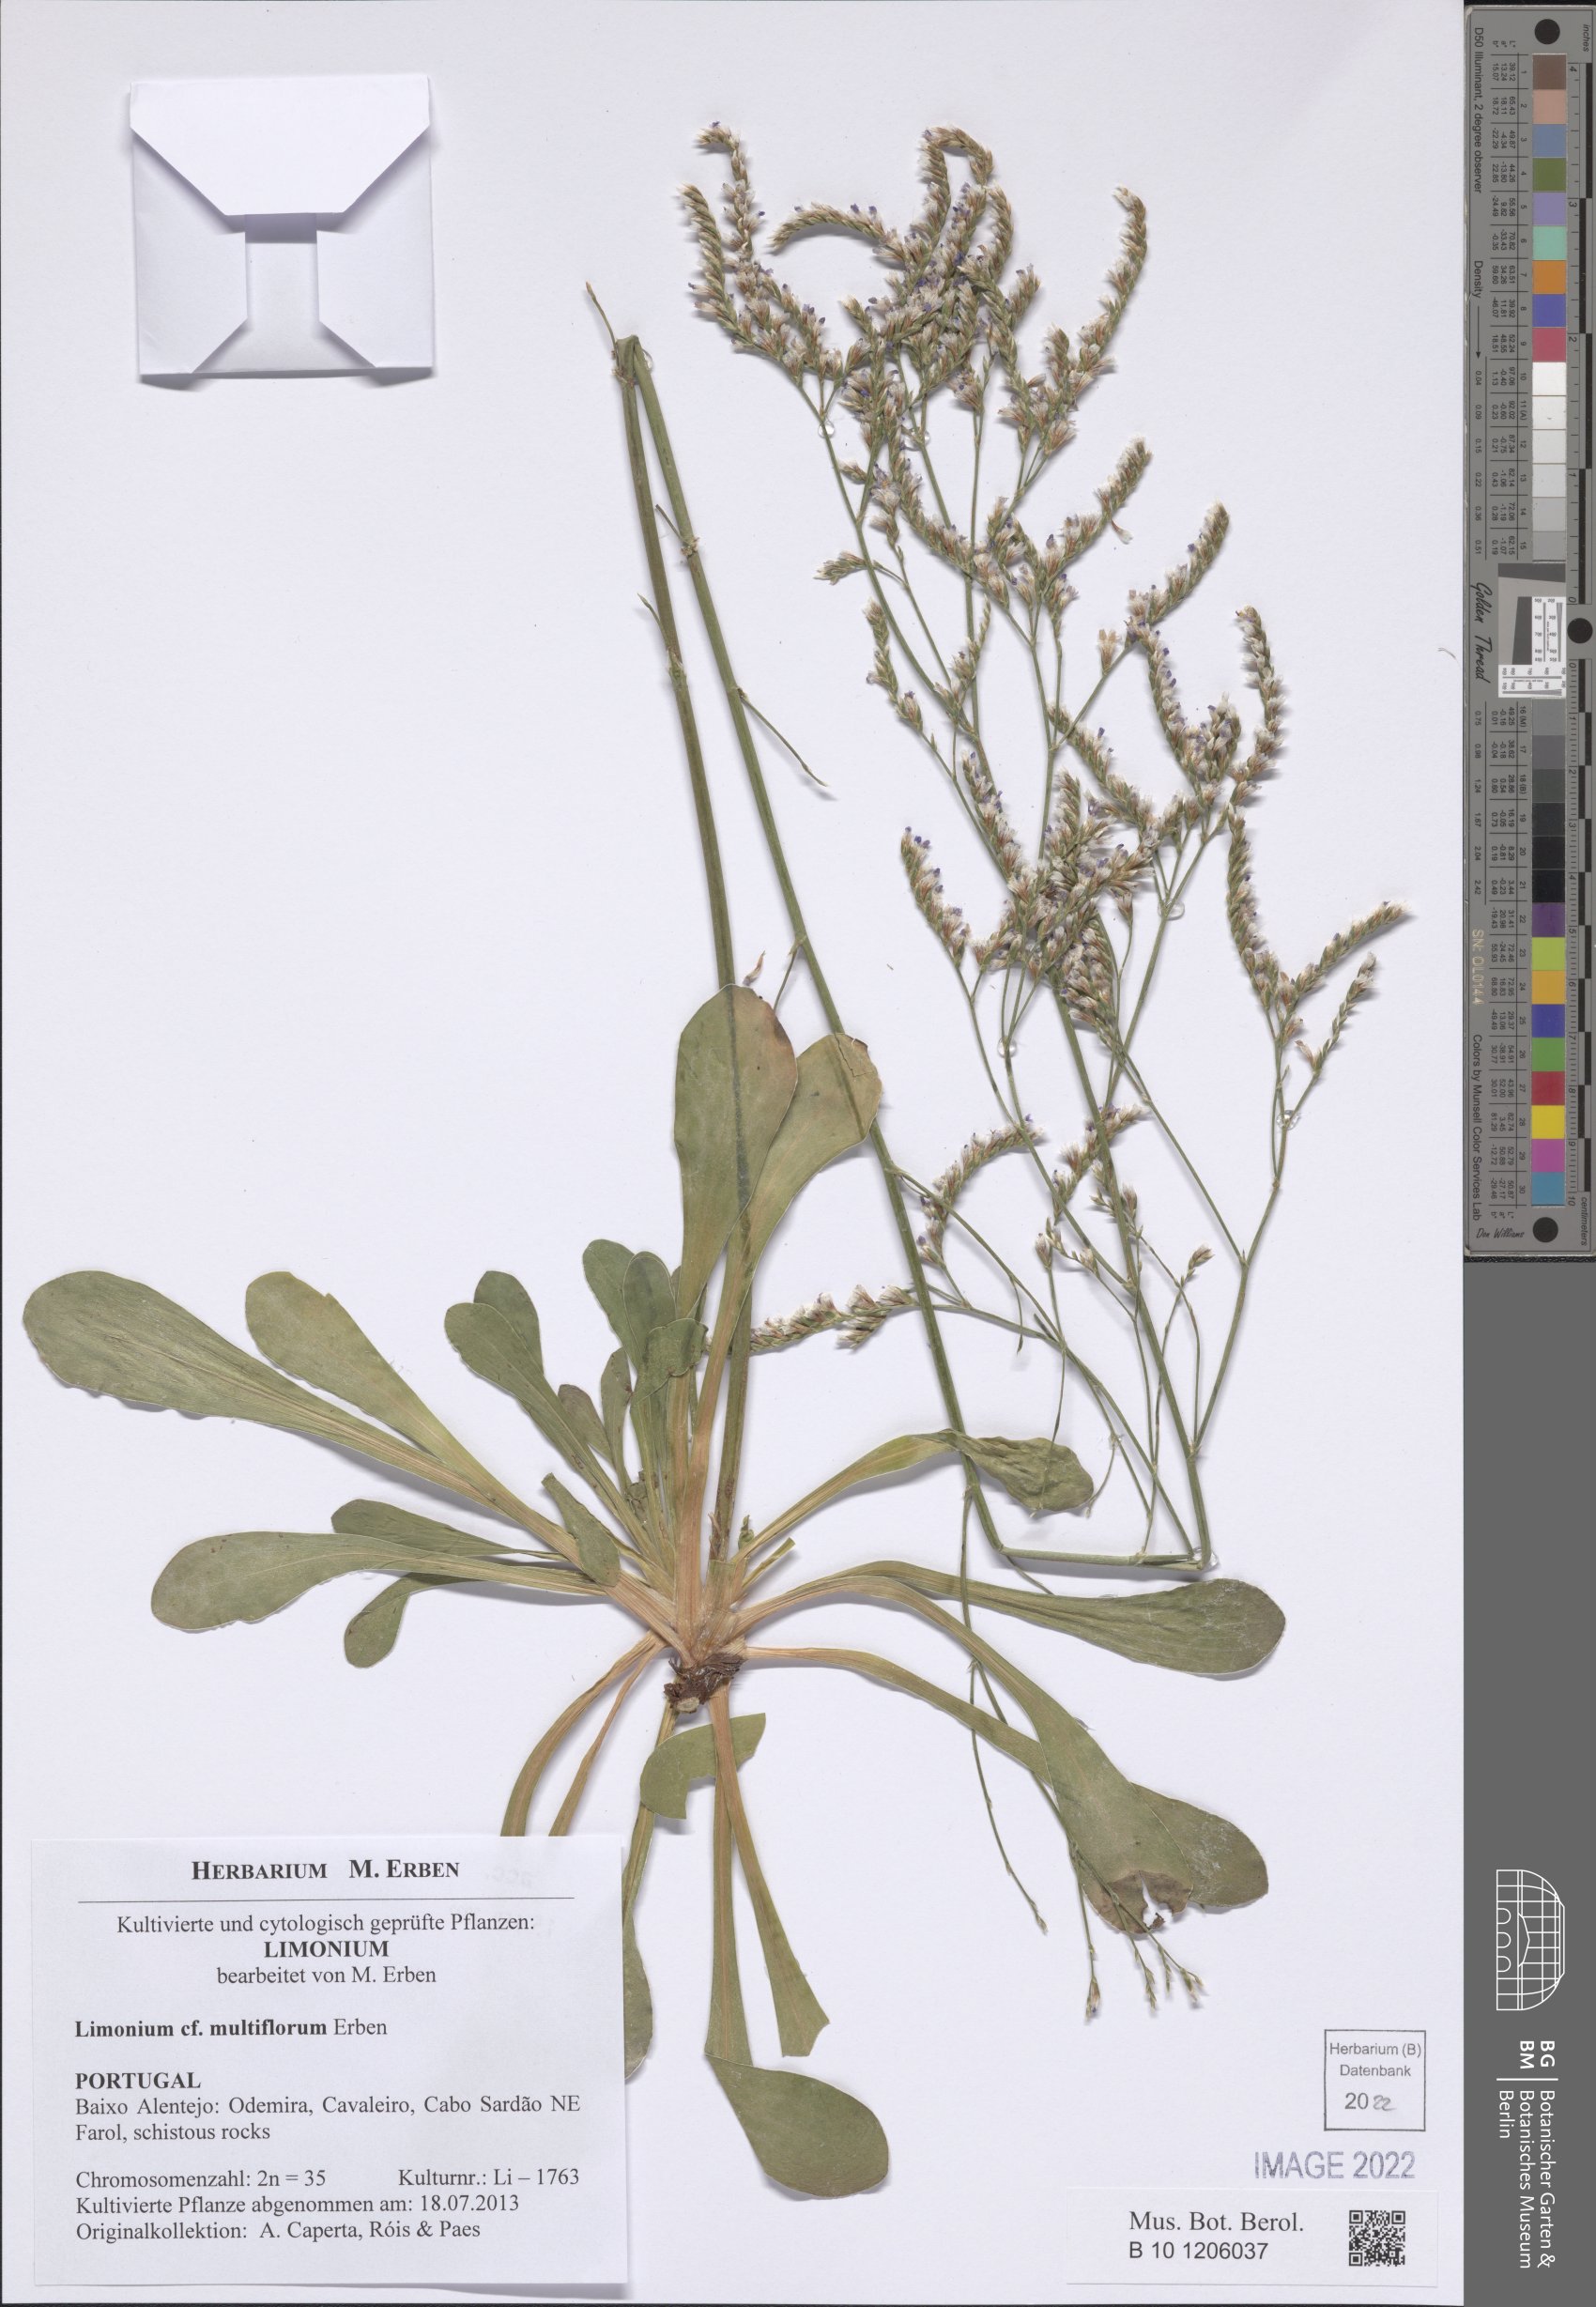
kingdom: Plantae
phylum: Tracheophyta
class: Magnoliopsida
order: Caryophyllales
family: Plumbaginaceae
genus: Limonium
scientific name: Limonium multiforme
